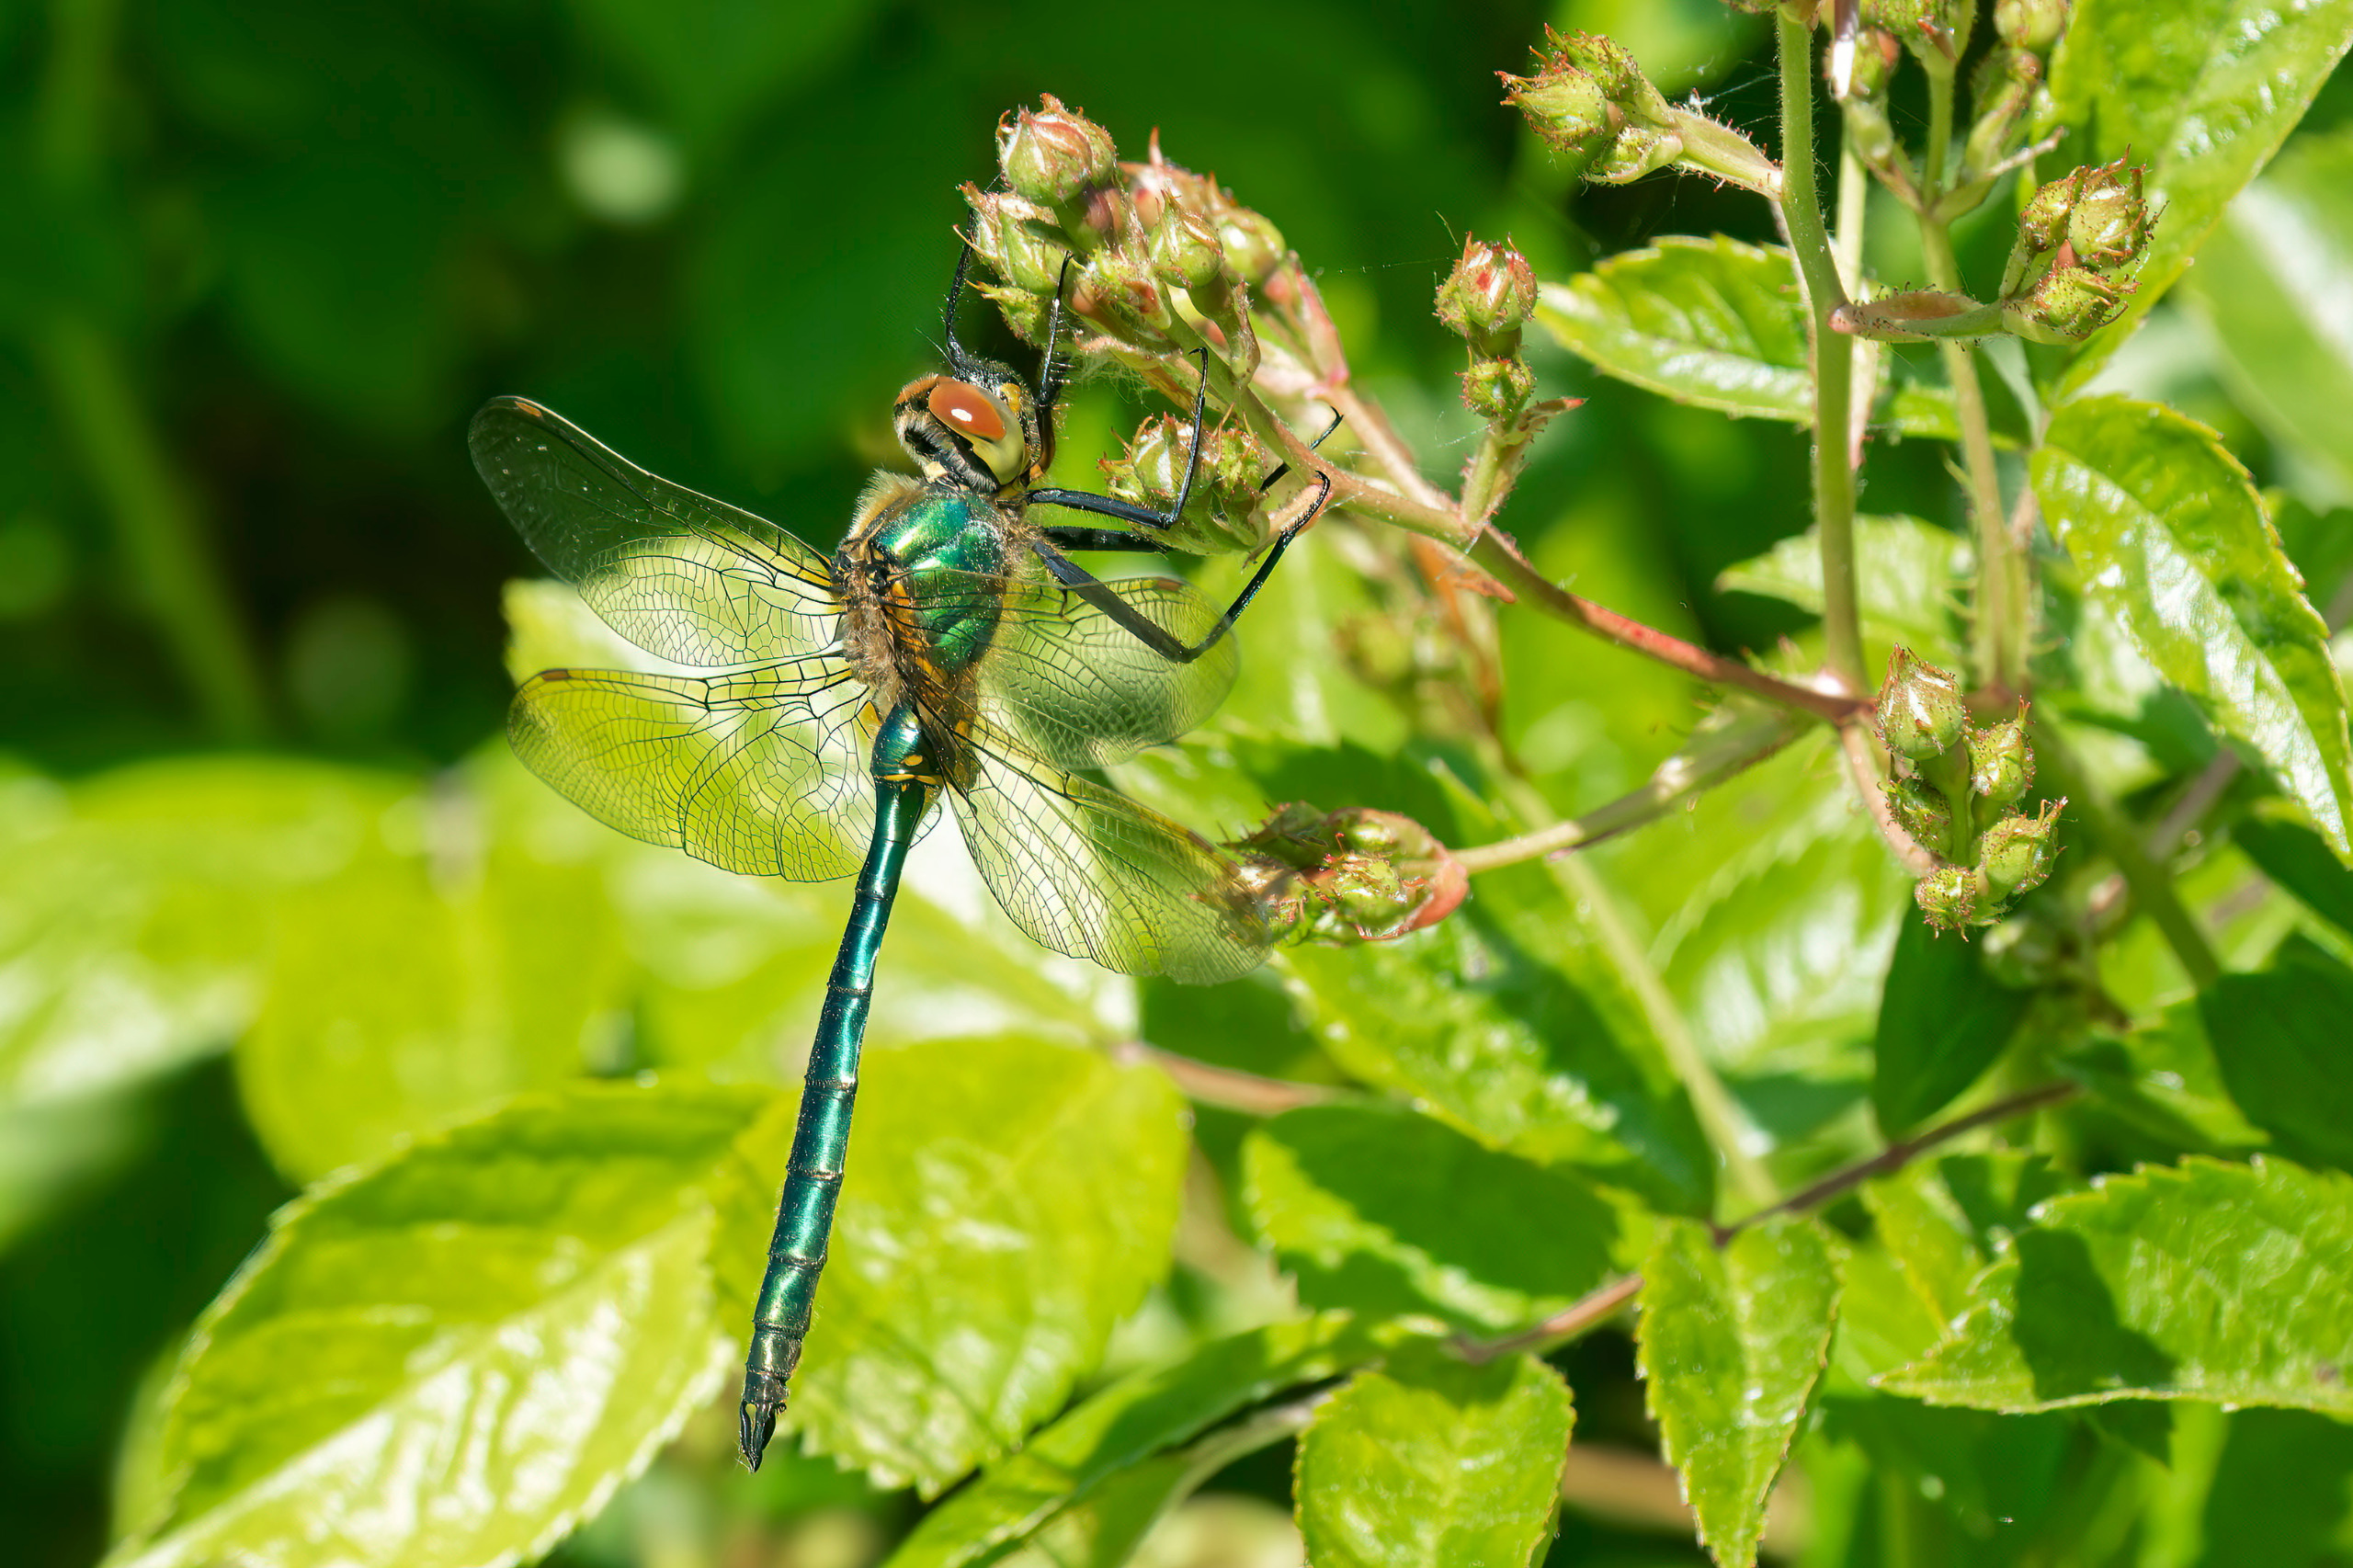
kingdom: Animalia
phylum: Arthropoda
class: Insecta
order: Odonata
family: Corduliidae
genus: Somatochlora
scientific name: Somatochlora metallica
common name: Glinsende smaragdlibel
